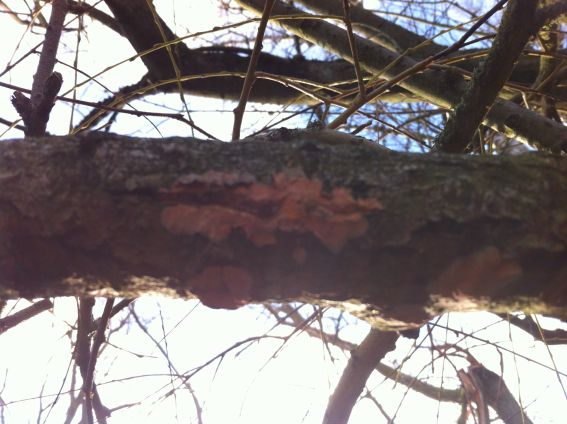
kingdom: Fungi
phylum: Basidiomycota
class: Agaricomycetes
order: Russulales
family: Peniophoraceae
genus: Peniophora
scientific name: Peniophora incarnata
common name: laksefarvet voksskind
